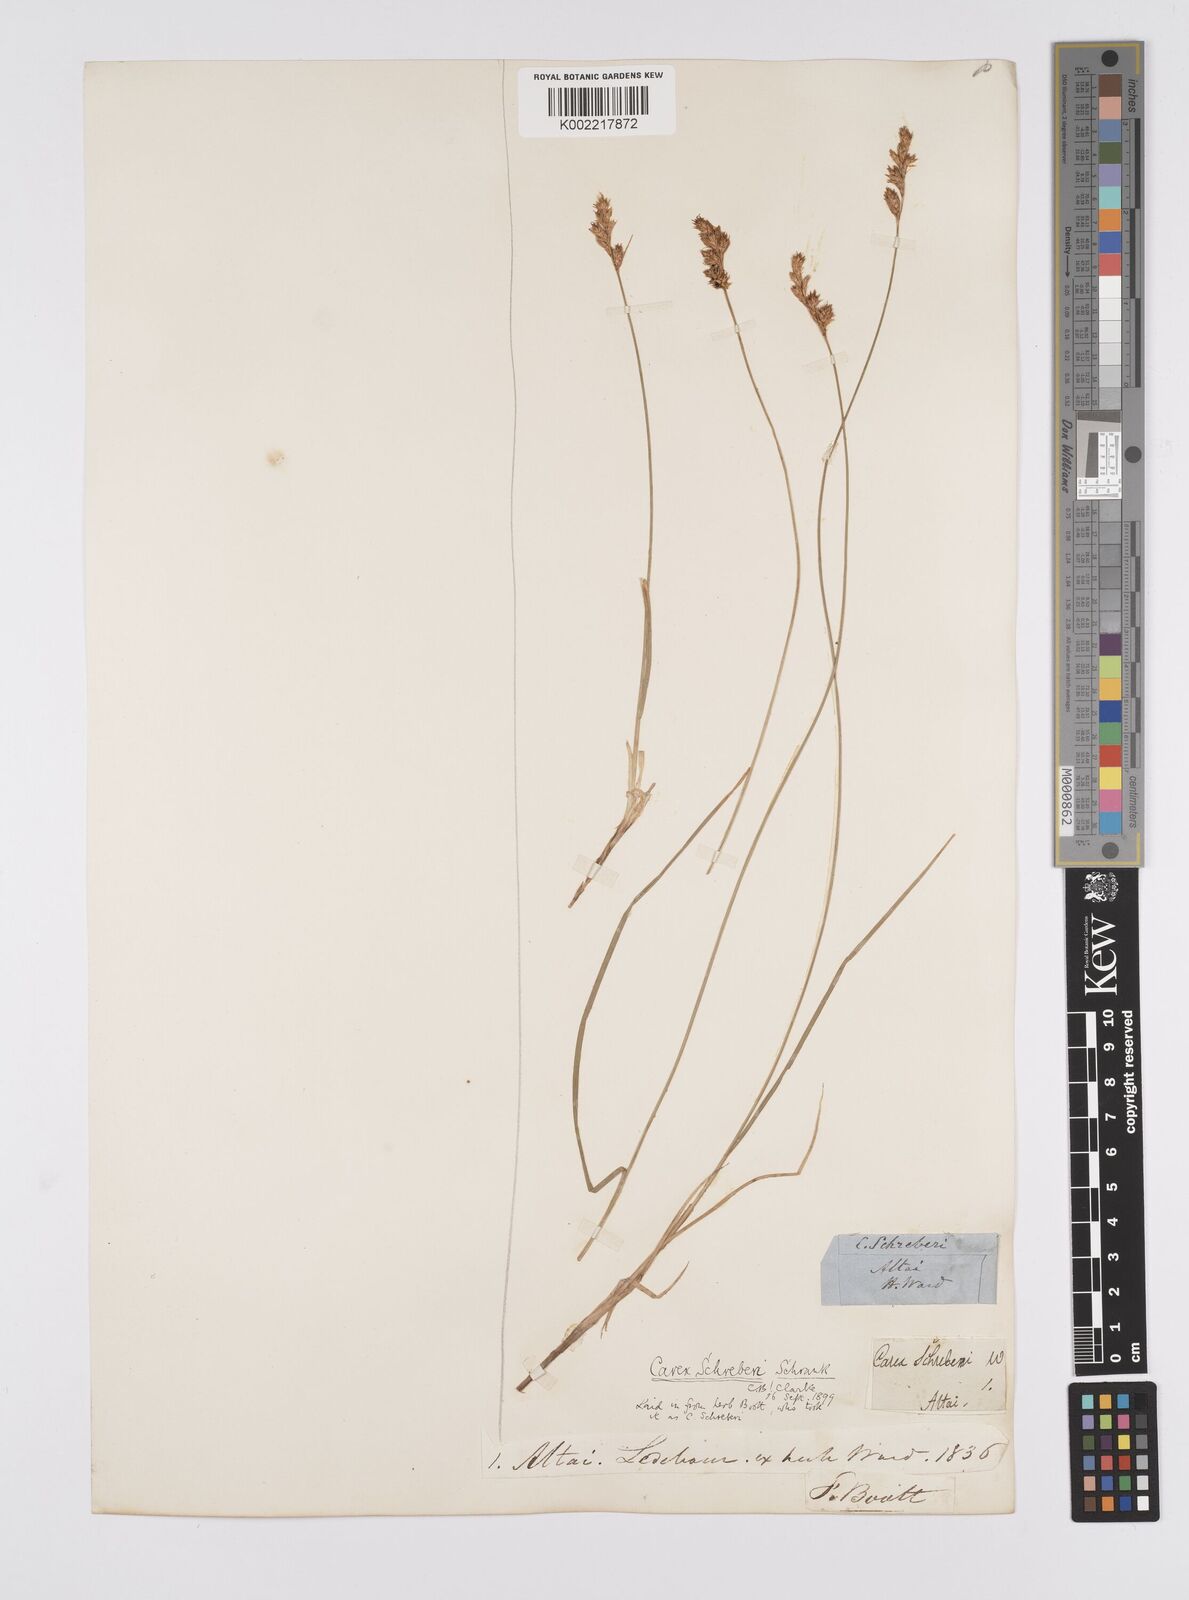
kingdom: Plantae
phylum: Tracheophyta
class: Liliopsida
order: Poales
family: Cyperaceae
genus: Carex
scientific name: Carex praecox
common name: Early sedge
